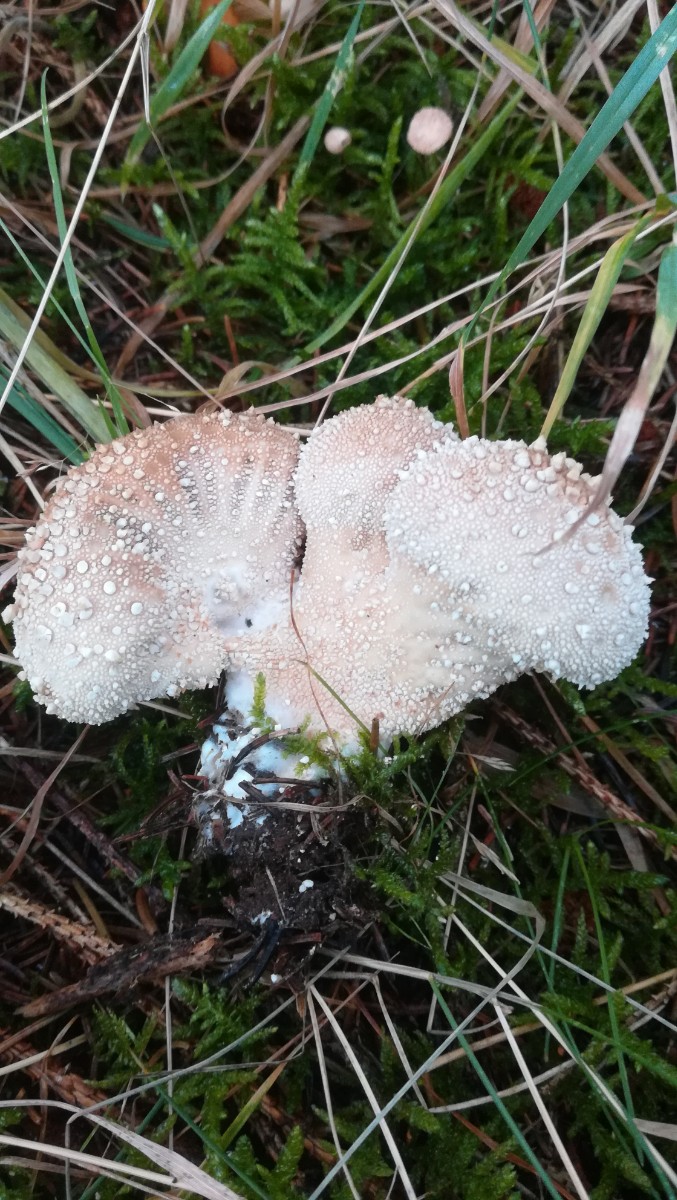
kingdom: Fungi
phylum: Basidiomycota
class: Agaricomycetes
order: Agaricales
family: Lycoperdaceae
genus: Lycoperdon
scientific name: Lycoperdon perlatum
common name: krystal-støvbold
